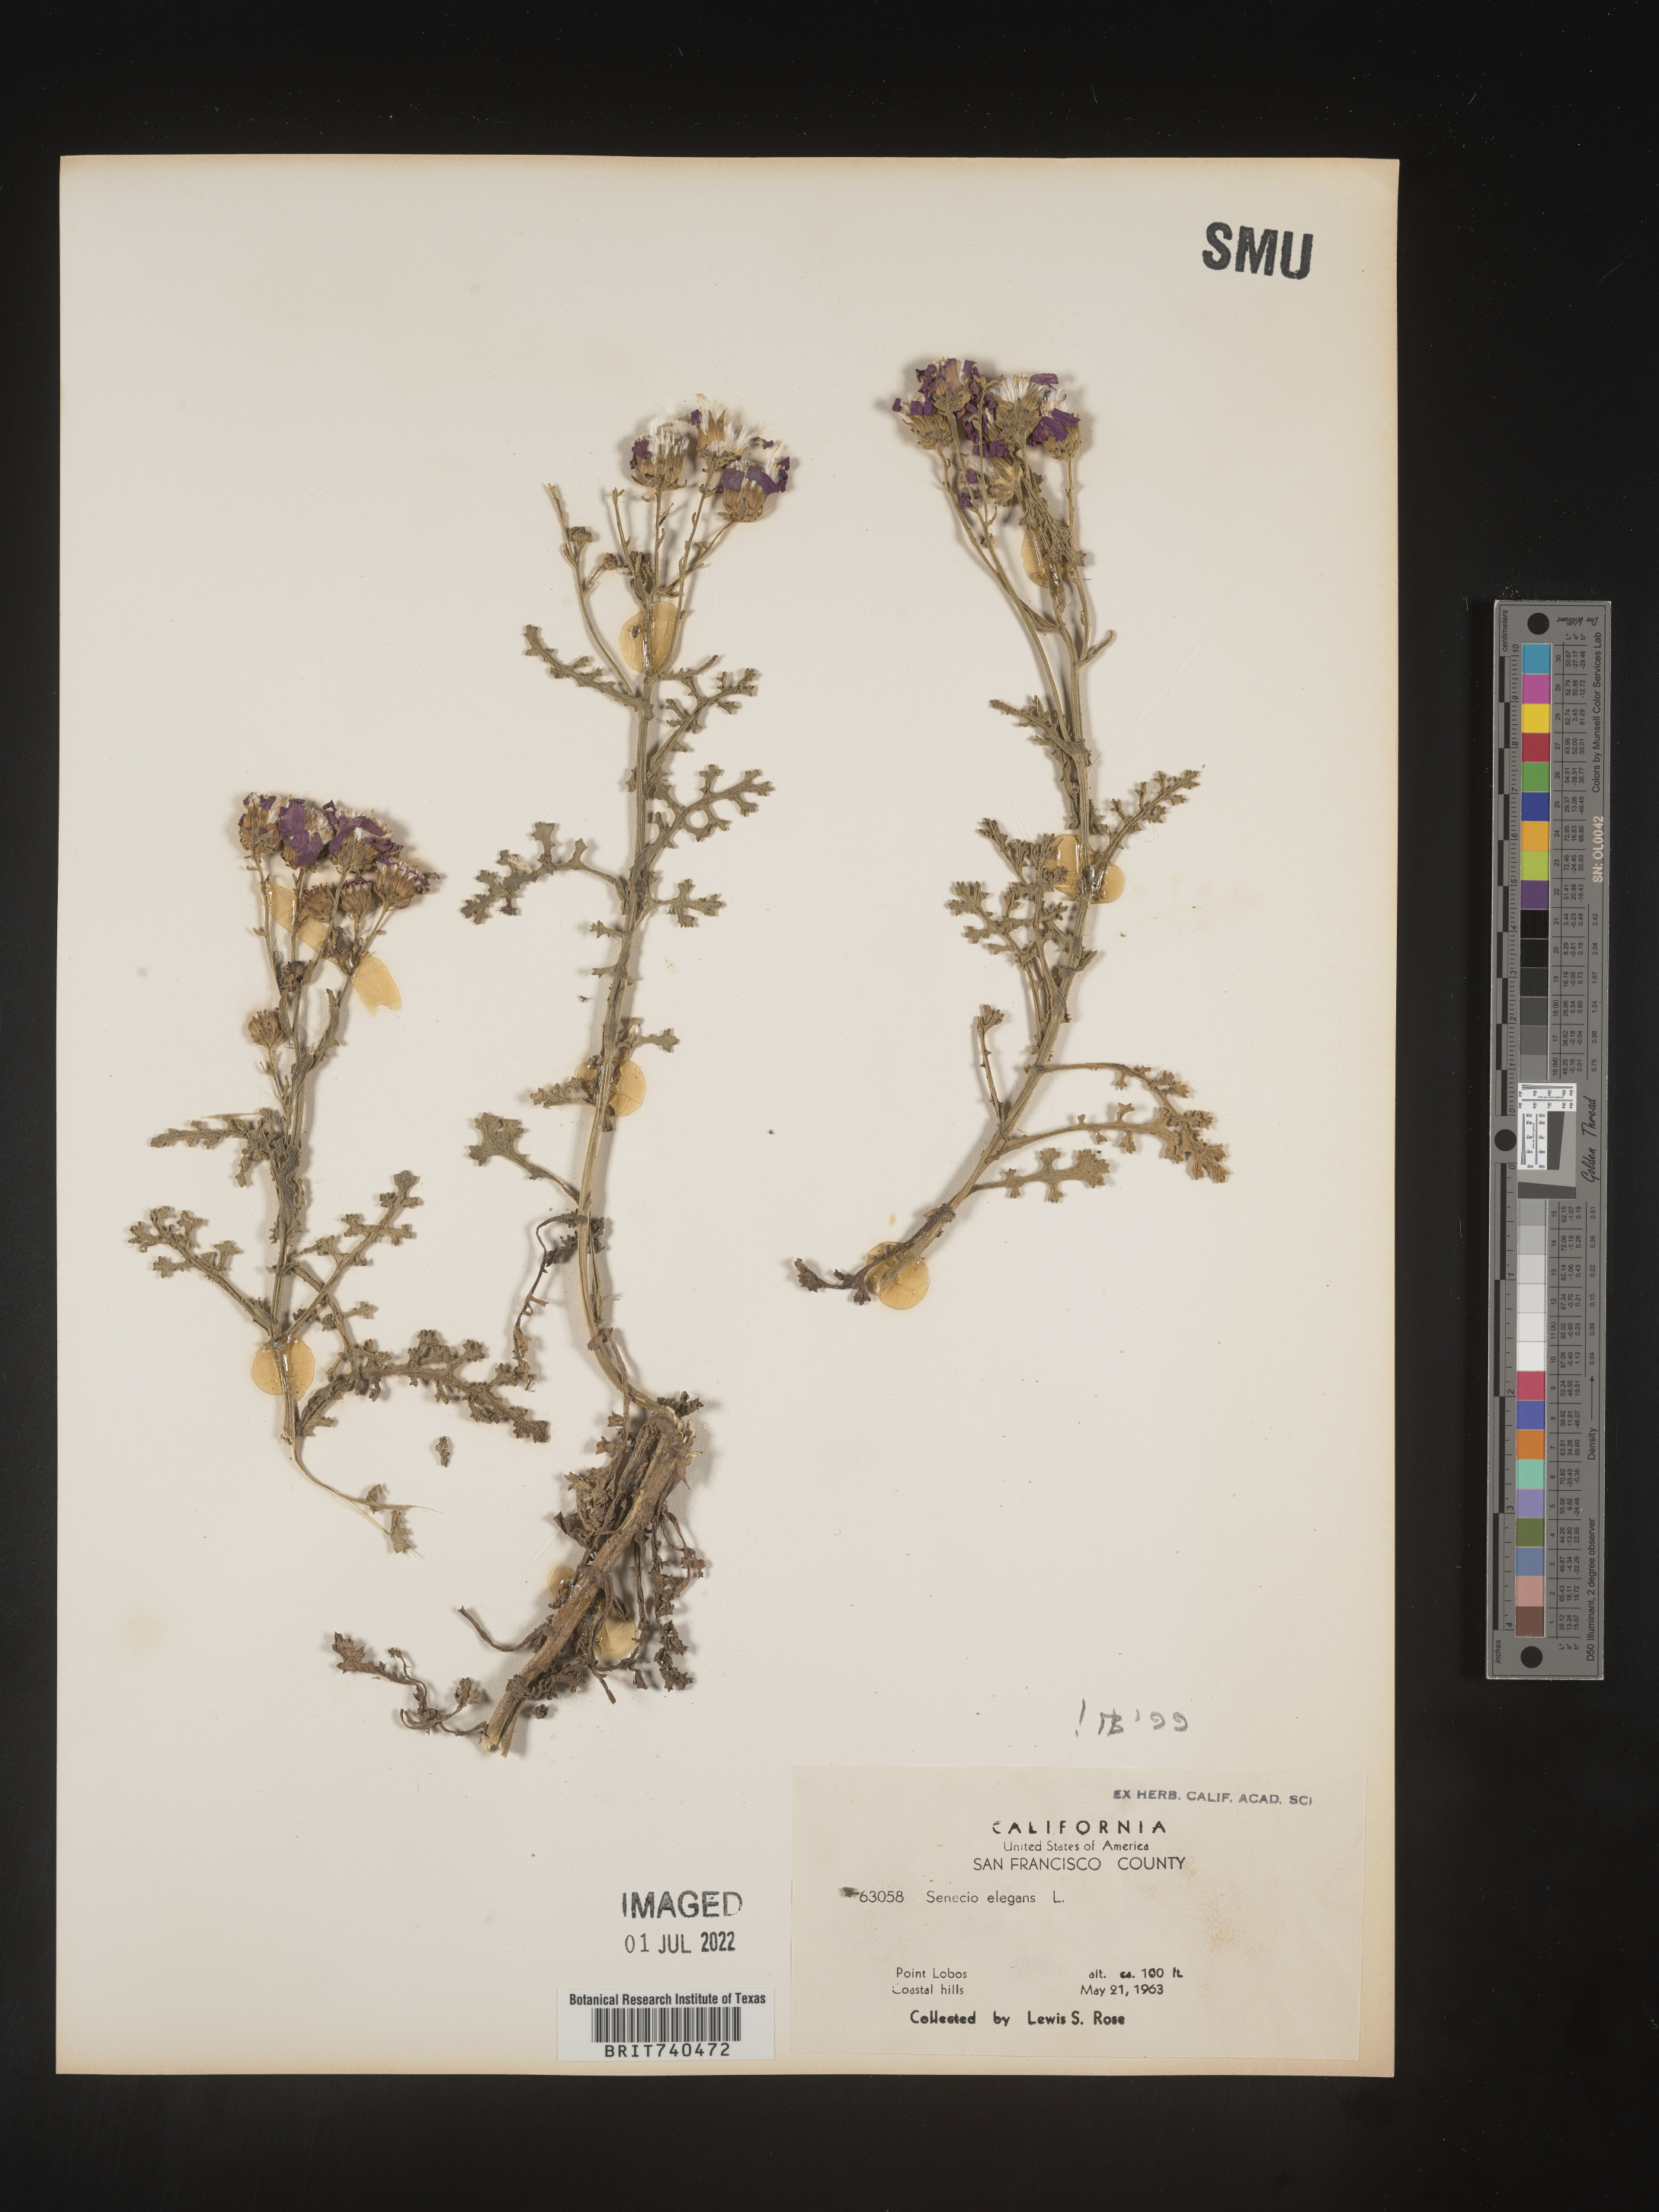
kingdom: Plantae
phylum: Tracheophyta
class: Magnoliopsida
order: Asterales
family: Asteraceae
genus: Senecio
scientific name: Senecio elegans
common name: Purple groundsel
